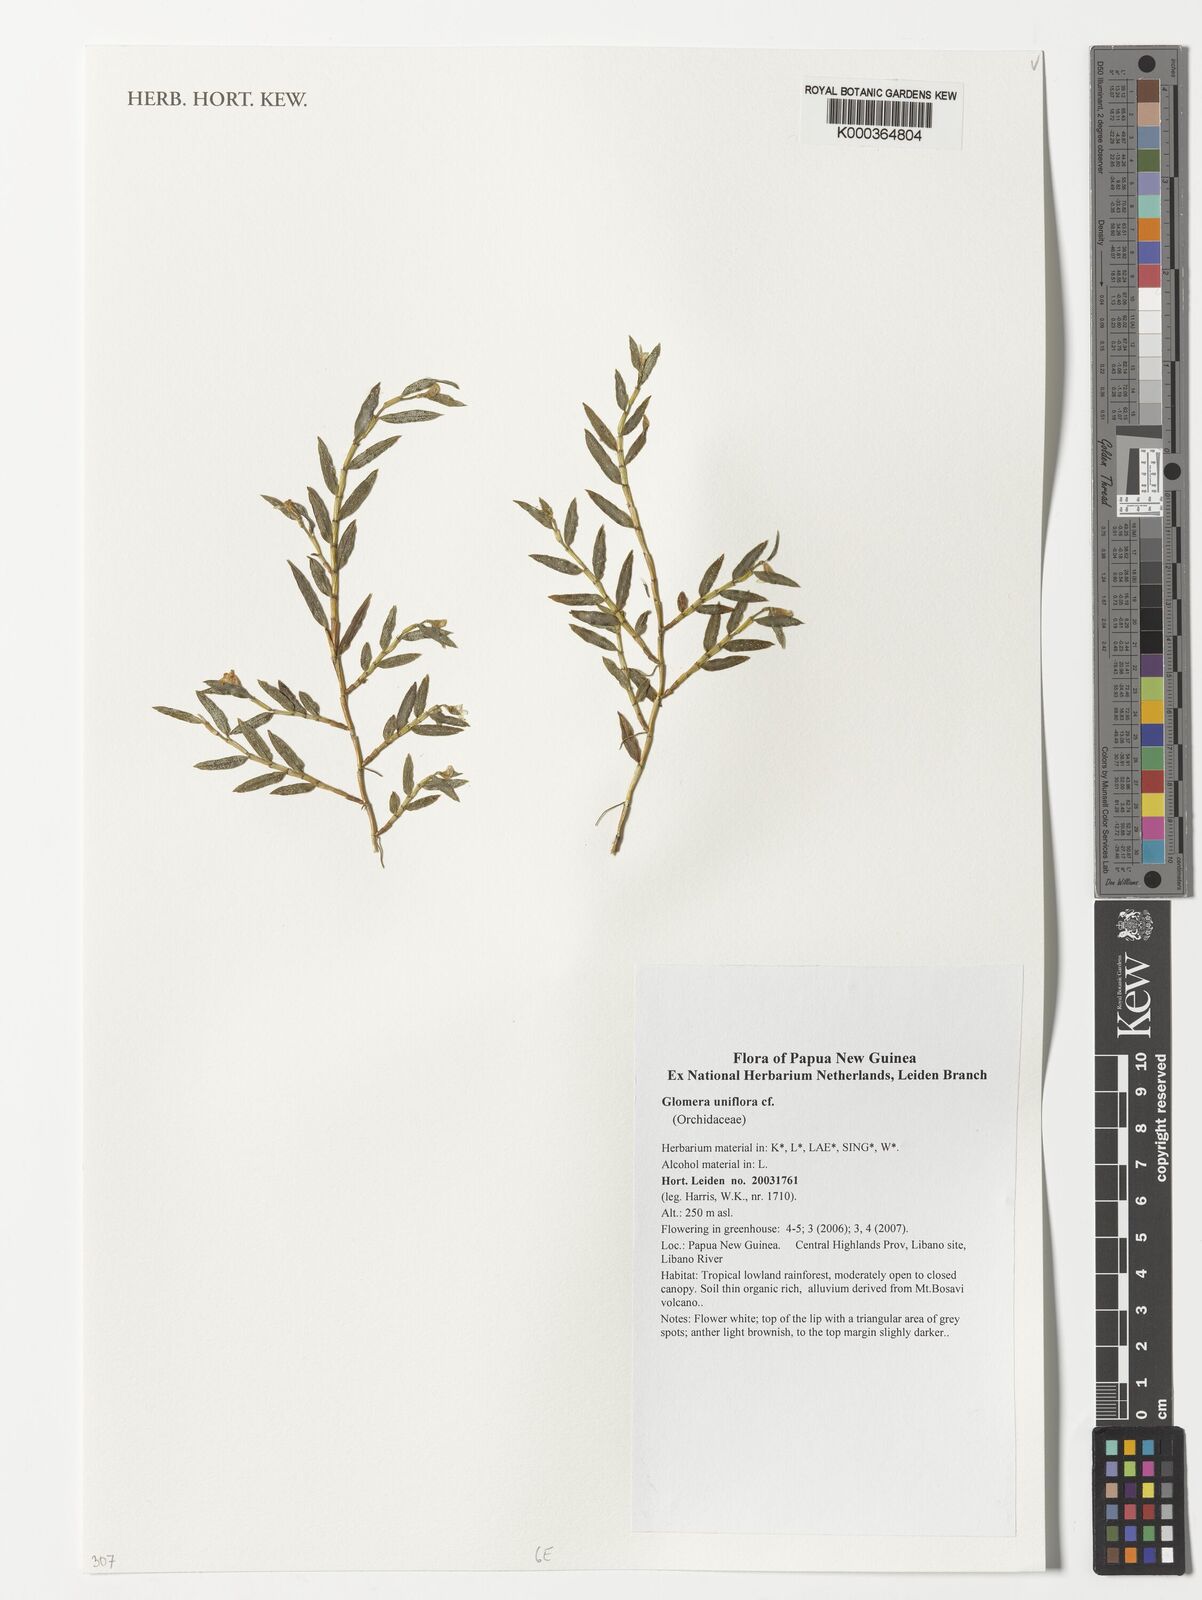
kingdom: Plantae
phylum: Tracheophyta
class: Liliopsida
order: Asparagales
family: Orchidaceae
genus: Glomera
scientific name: Glomera squamulosa
